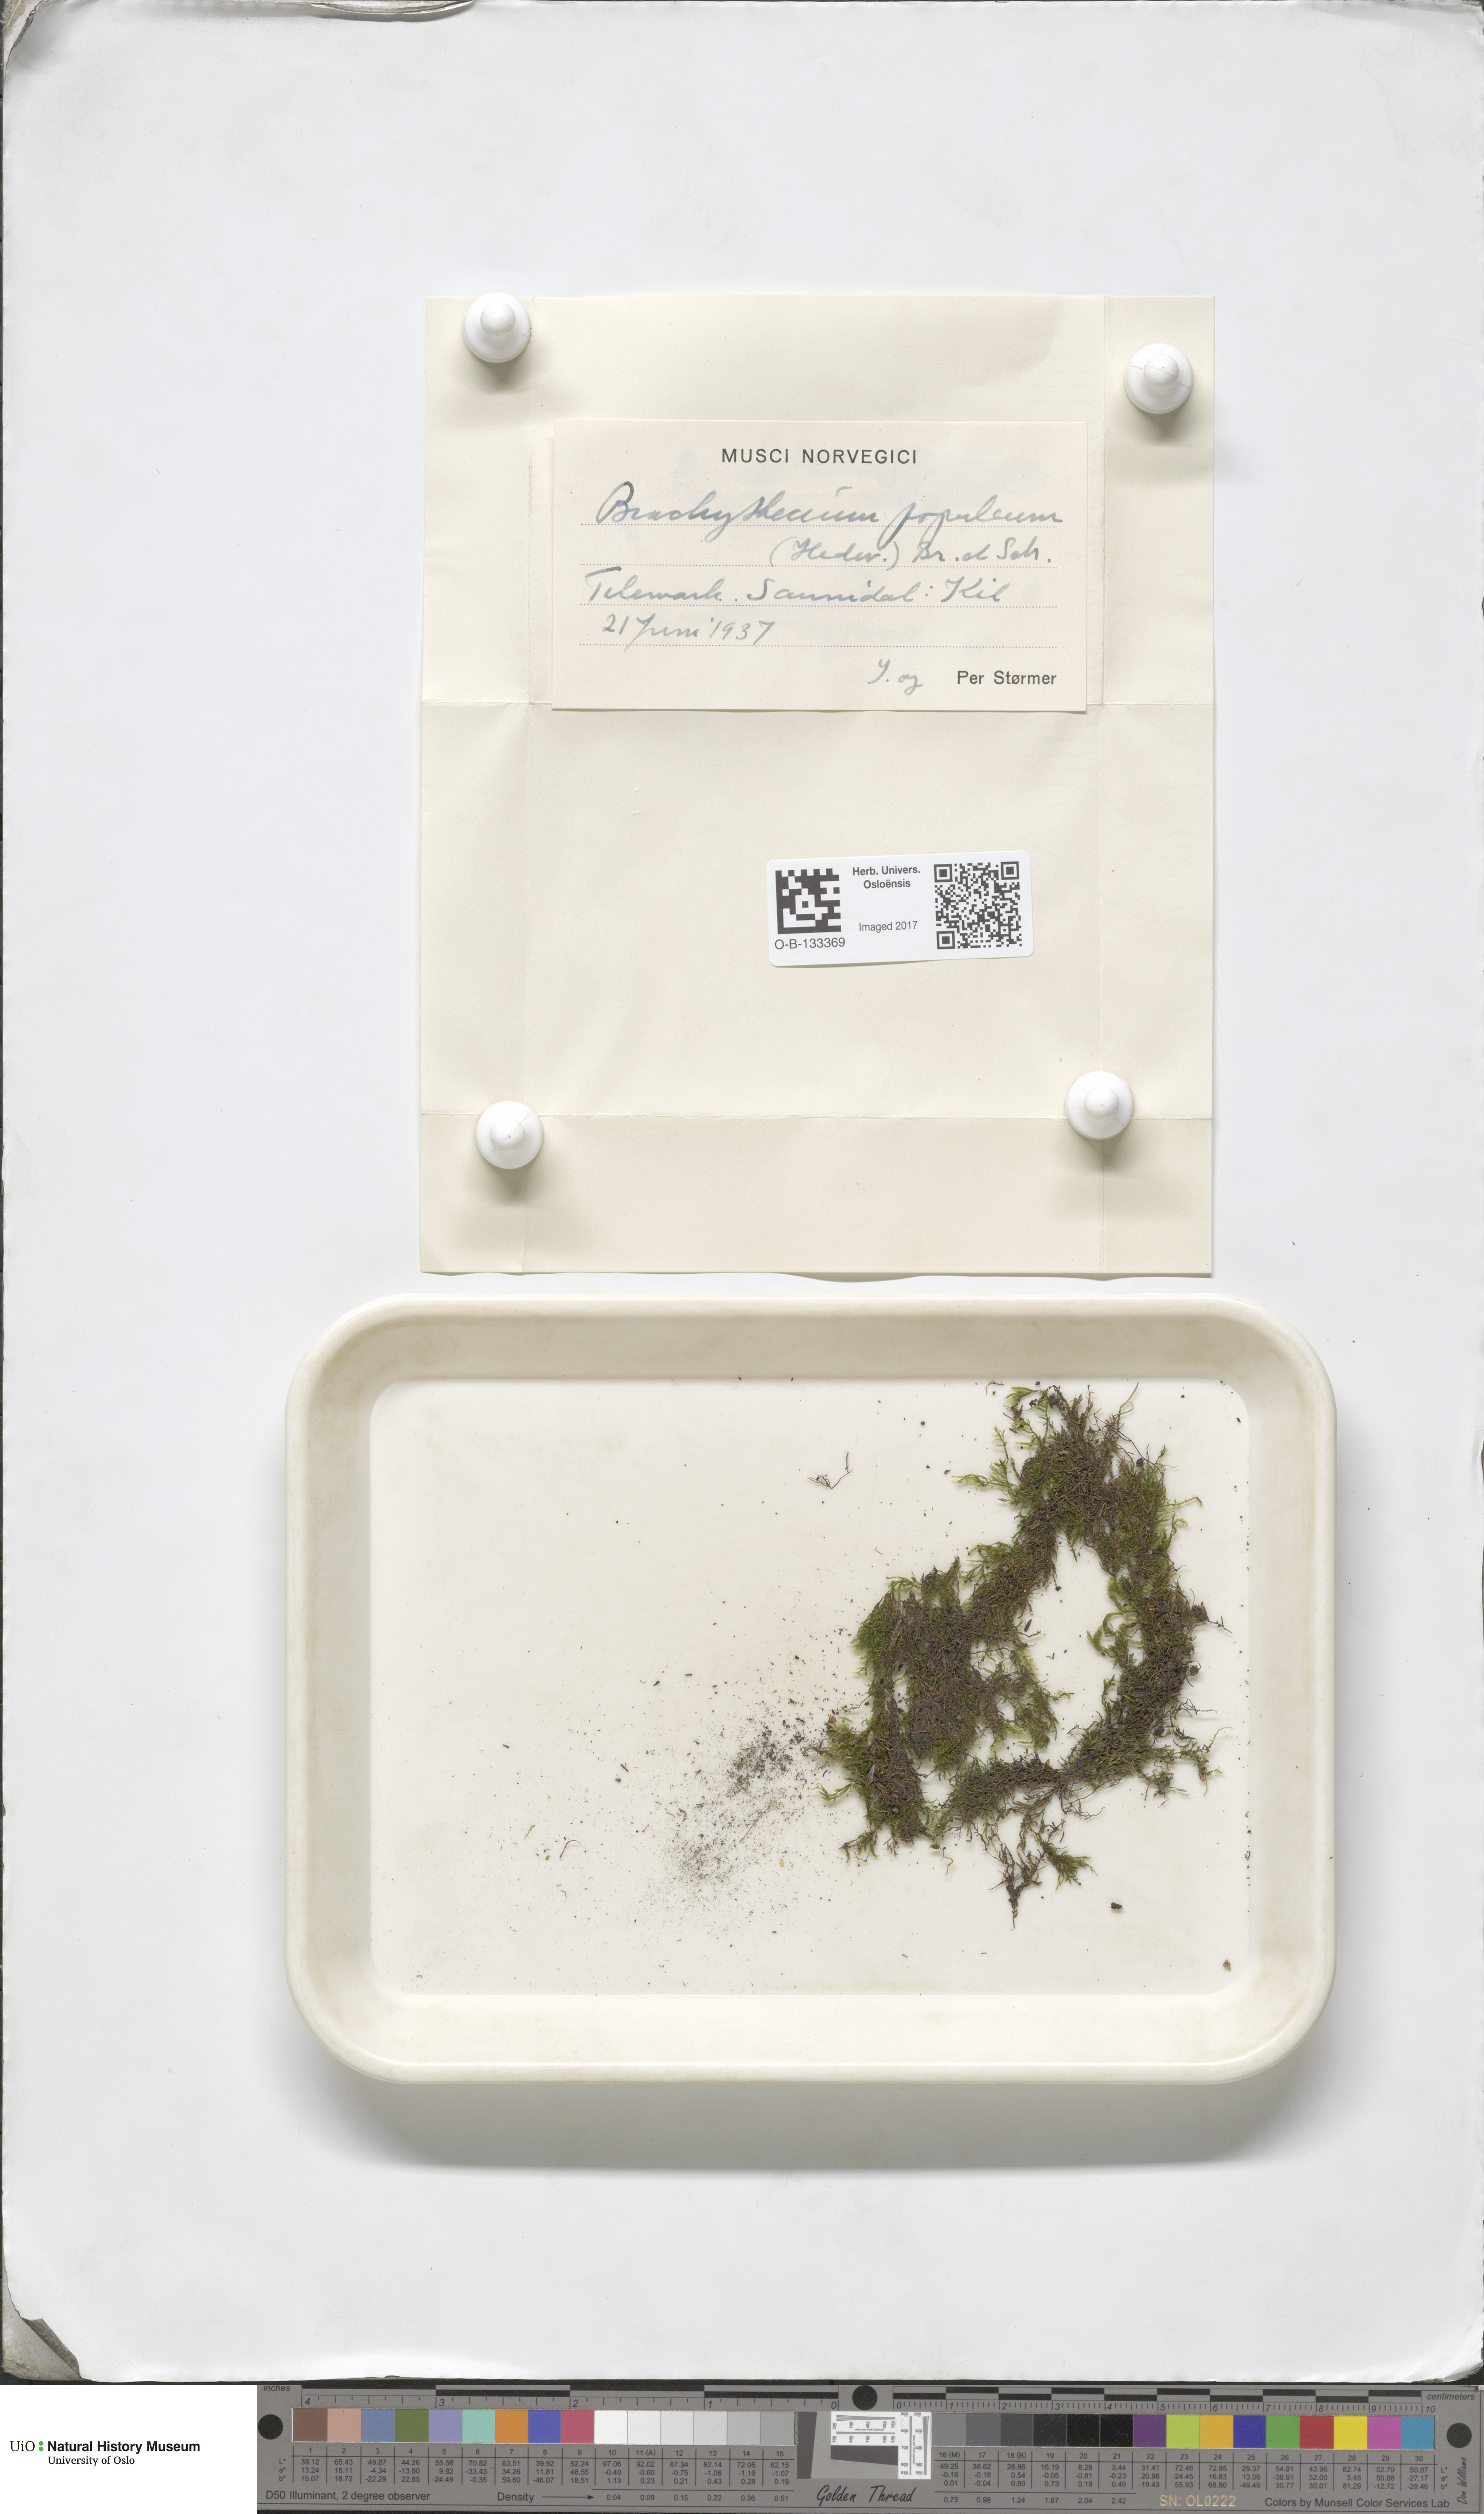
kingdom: Plantae
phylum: Bryophyta
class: Bryopsida
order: Hypnales
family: Brachytheciaceae
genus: Sciuro-hypnum
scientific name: Sciuro-hypnum plumosum
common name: Rusty feather-moss
